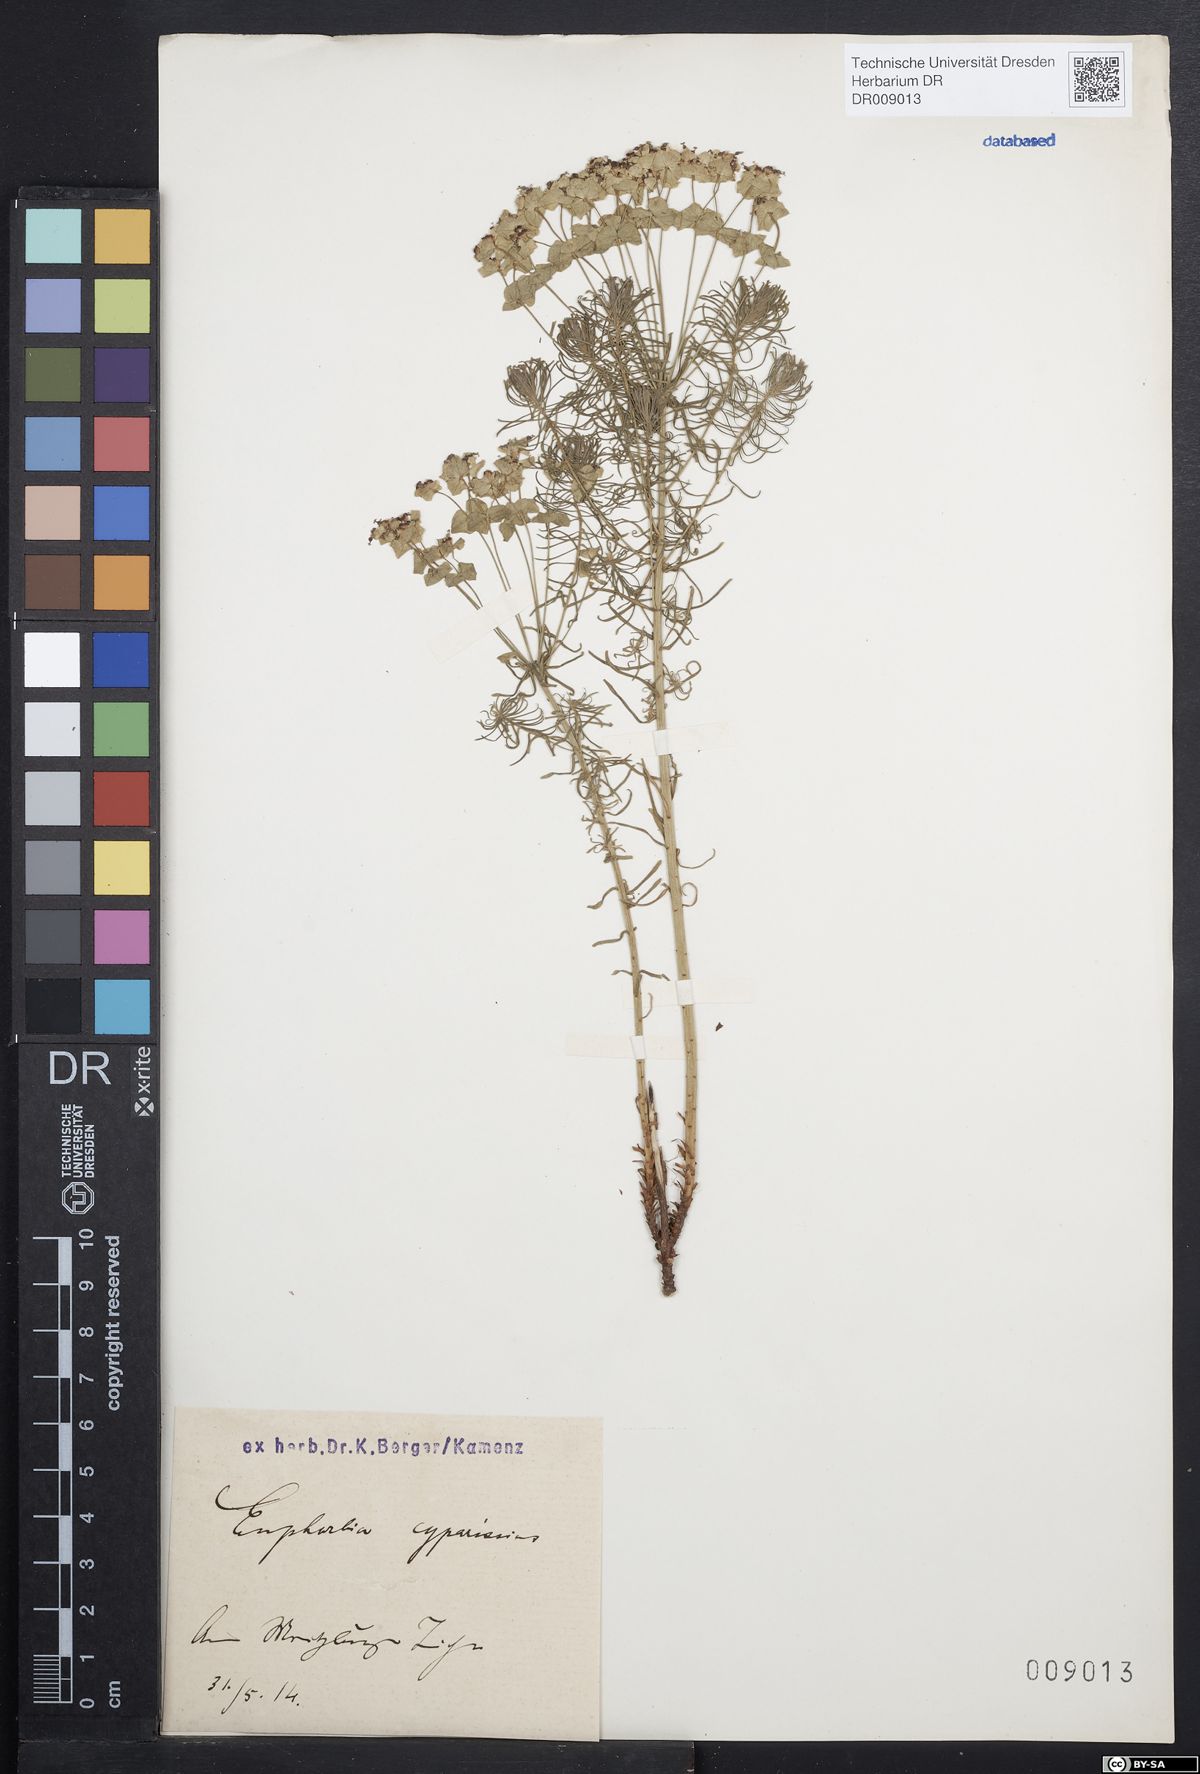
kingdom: Plantae
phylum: Tracheophyta
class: Magnoliopsida
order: Malpighiales
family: Euphorbiaceae
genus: Euphorbia
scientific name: Euphorbia cyparissias
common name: Cypress spurge
